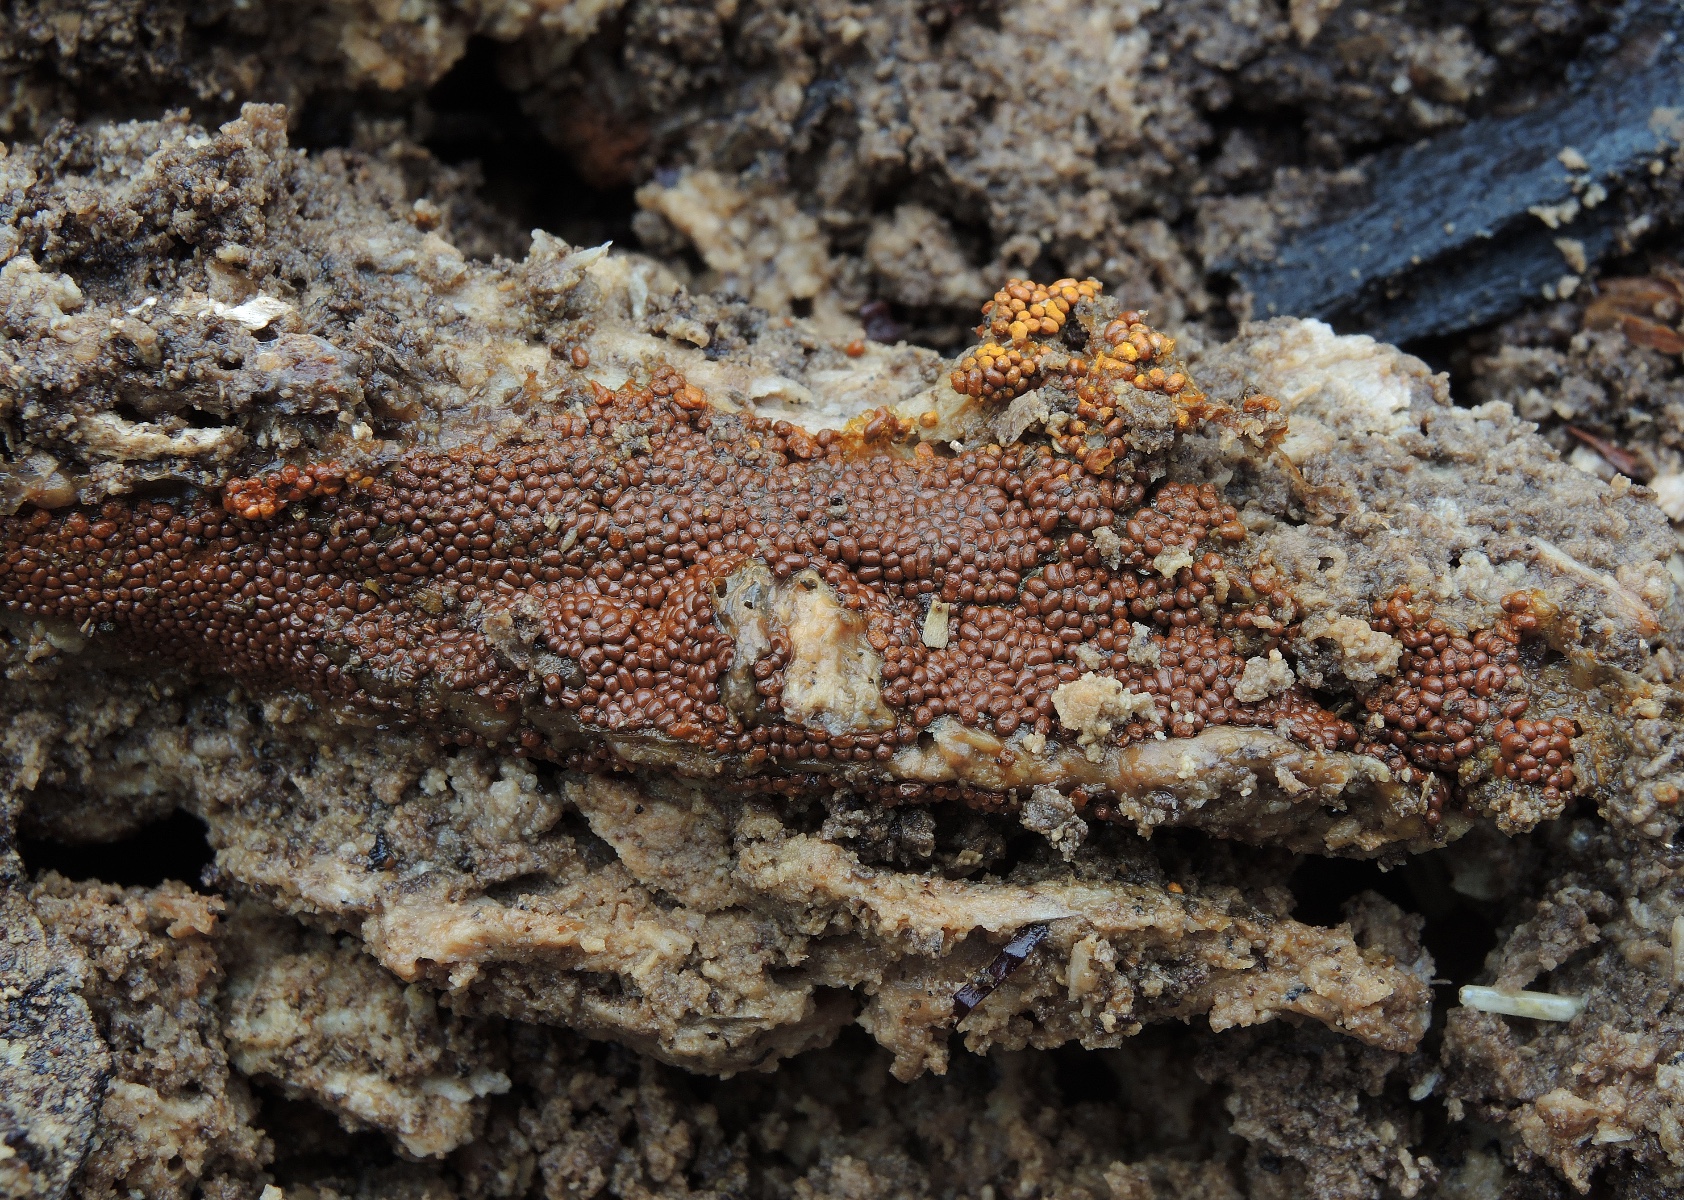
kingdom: Protozoa
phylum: Mycetozoa
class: Myxomycetes
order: Trichiales
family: Trichiaceae
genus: Trichia
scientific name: Trichia scabra
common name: tæppe-hårbold
